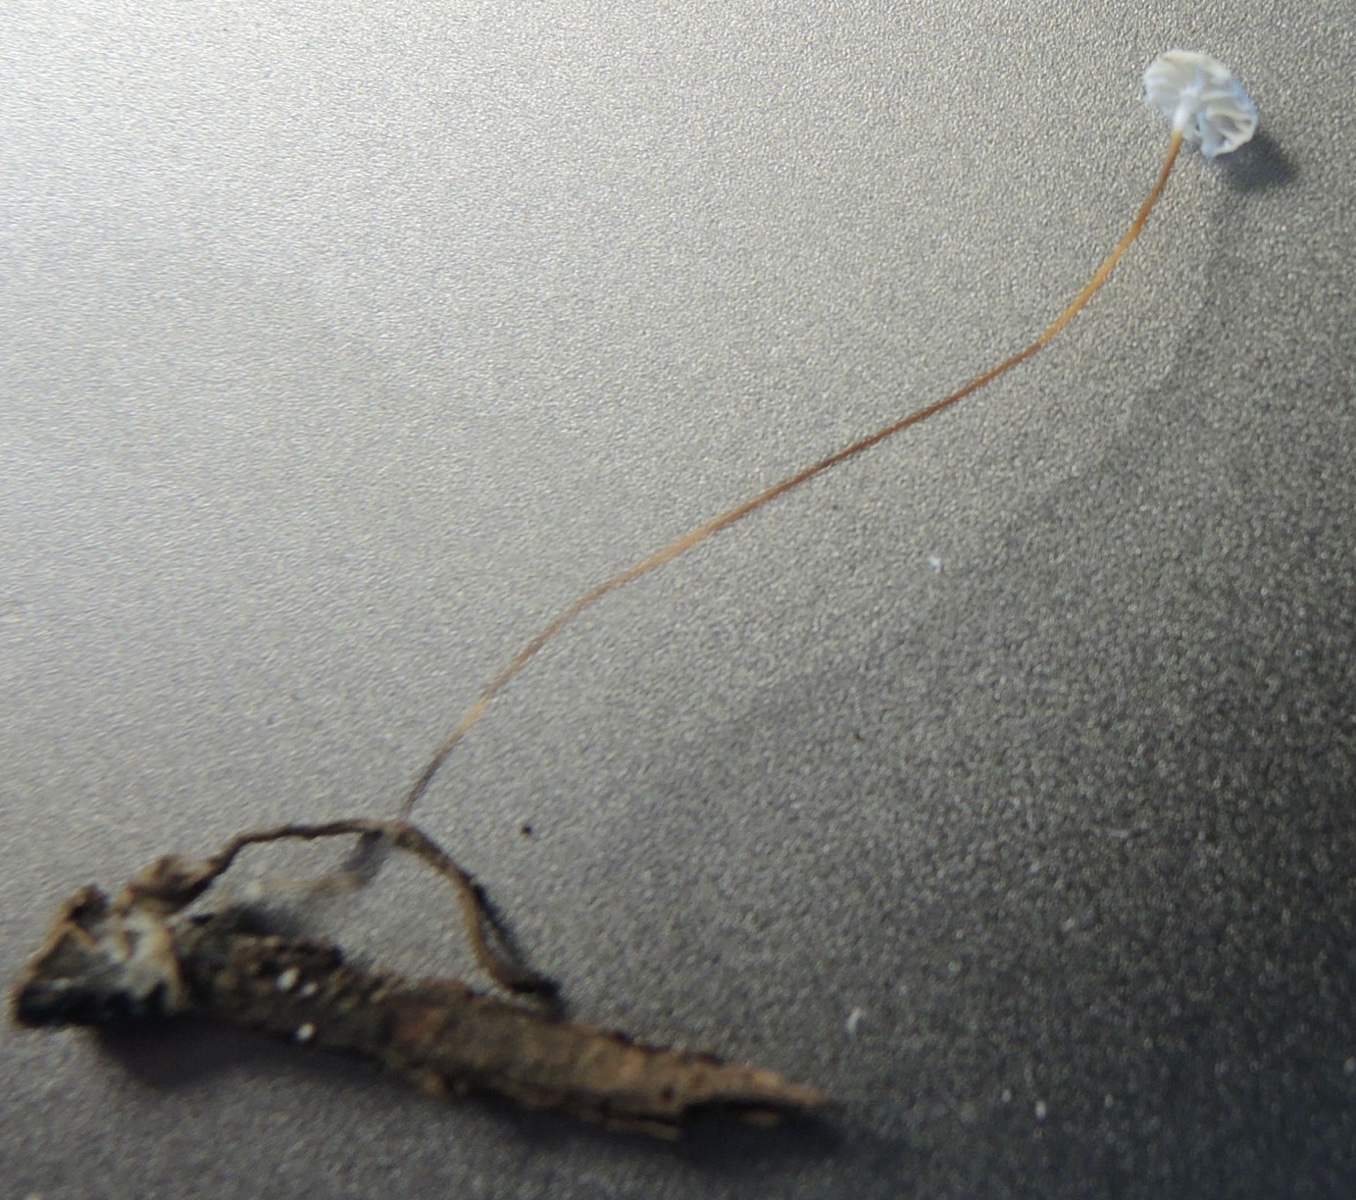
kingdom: Fungi
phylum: Basidiomycota
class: Agaricomycetes
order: Agaricales
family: Physalacriaceae
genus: Rhizomarasmius
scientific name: Rhizomarasmius setosus
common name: bøgeblads-bruskhat
